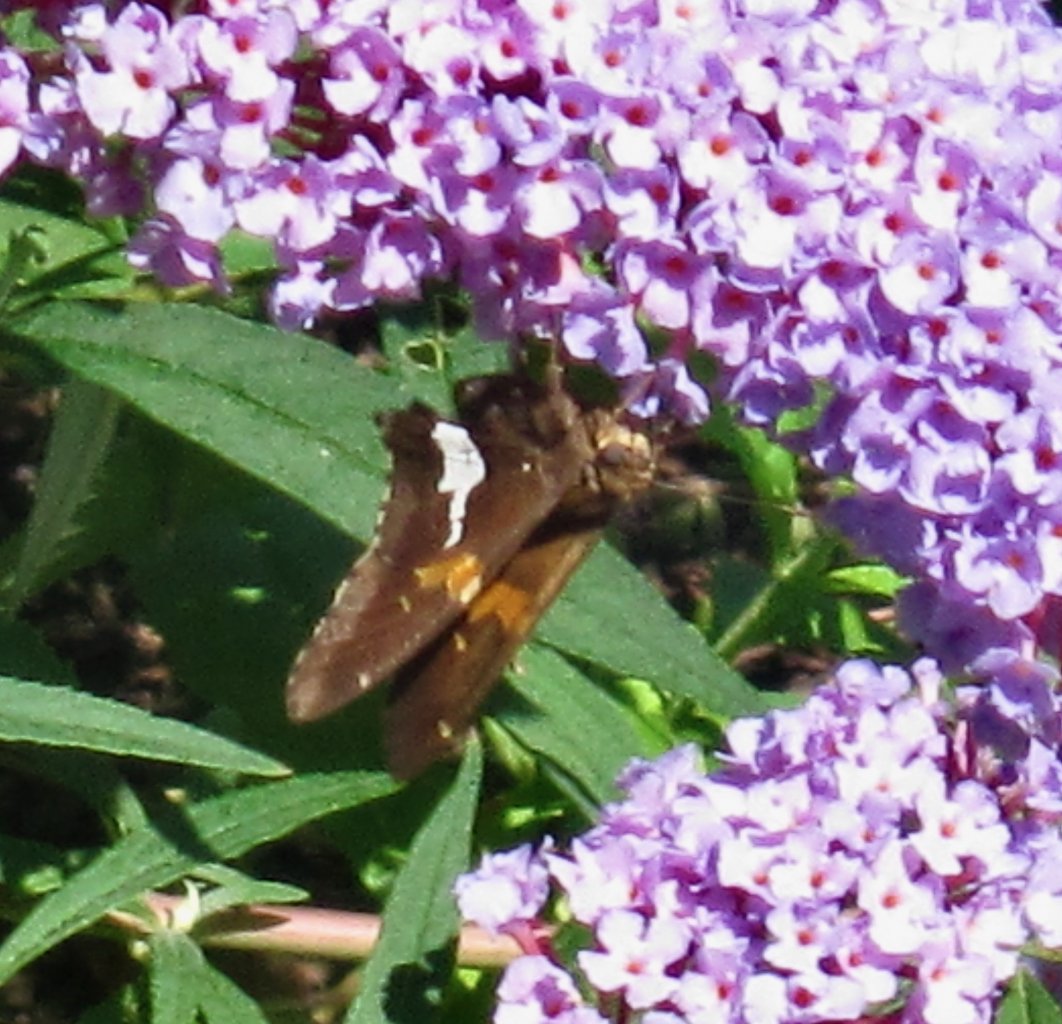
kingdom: Animalia
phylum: Arthropoda
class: Insecta
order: Lepidoptera
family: Hesperiidae
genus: Epargyreus
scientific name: Epargyreus clarus
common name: Silver-spotted Skipper
